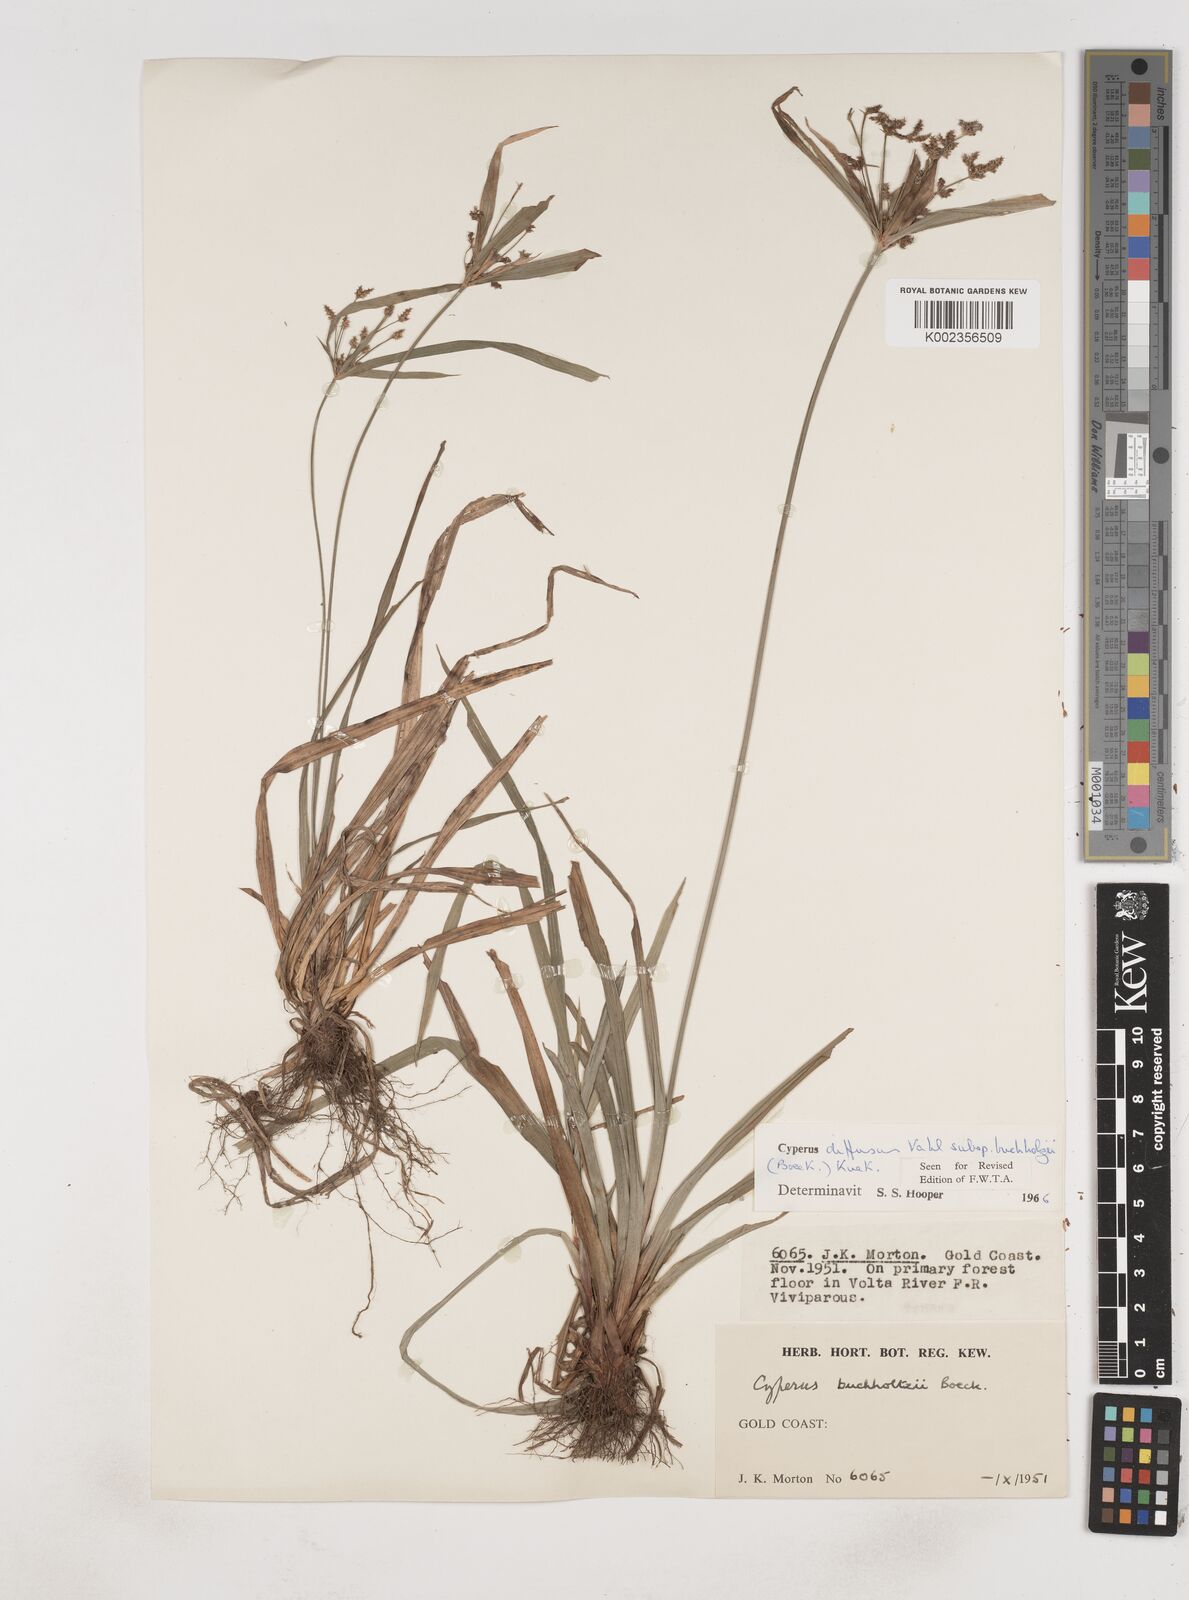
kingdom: Plantae
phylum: Tracheophyta
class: Liliopsida
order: Poales
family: Cyperaceae
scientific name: Cyperaceae
